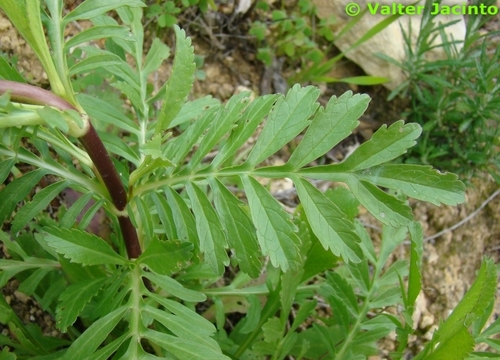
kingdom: Plantae
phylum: Tracheophyta
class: Magnoliopsida
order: Dipsacales
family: Caprifoliaceae
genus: Sixalix
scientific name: Sixalix atropurpurea
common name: Sweet scabious
